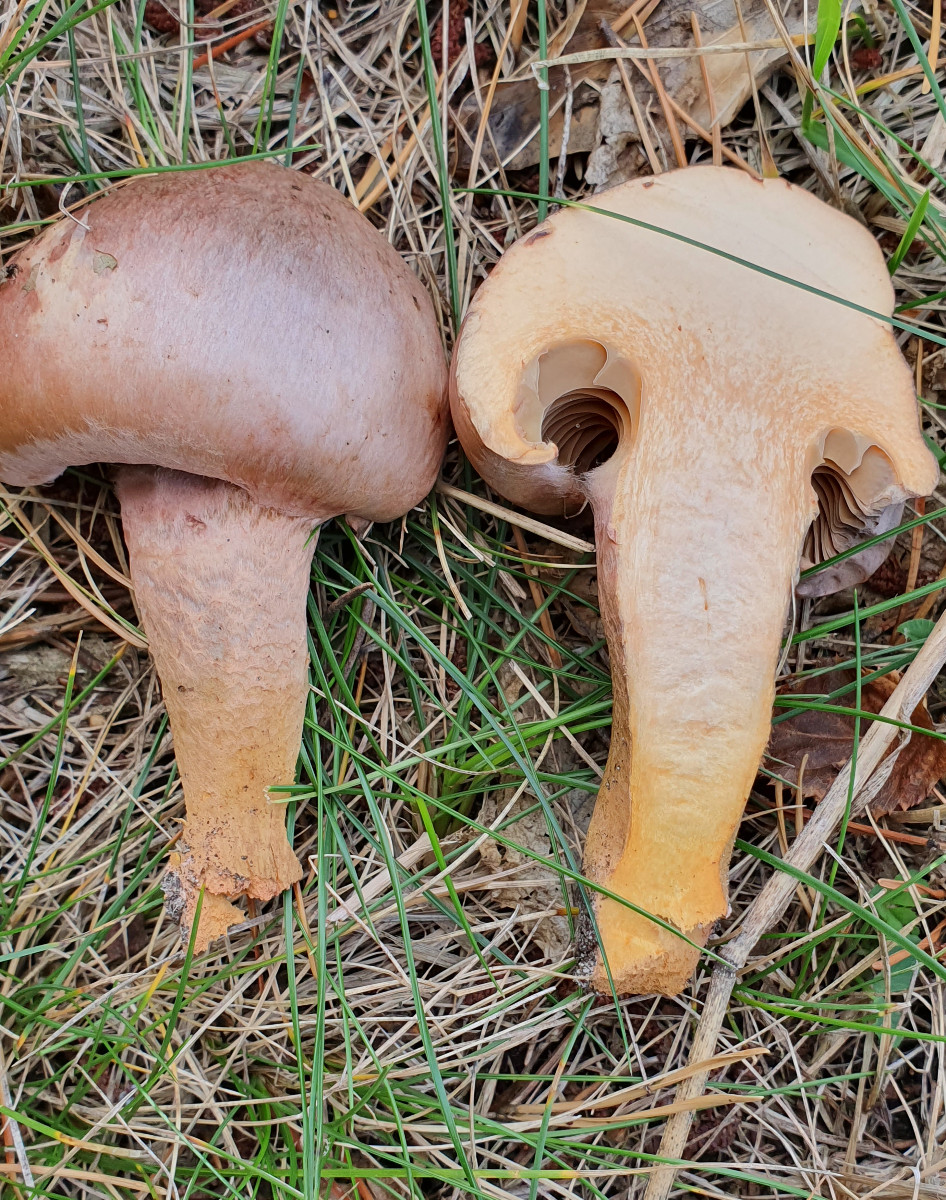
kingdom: Fungi
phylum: Basidiomycota
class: Agaricomycetes
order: Boletales
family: Gomphidiaceae
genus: Chroogomphus
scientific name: Chroogomphus rutilus
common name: brunrød slimslør
